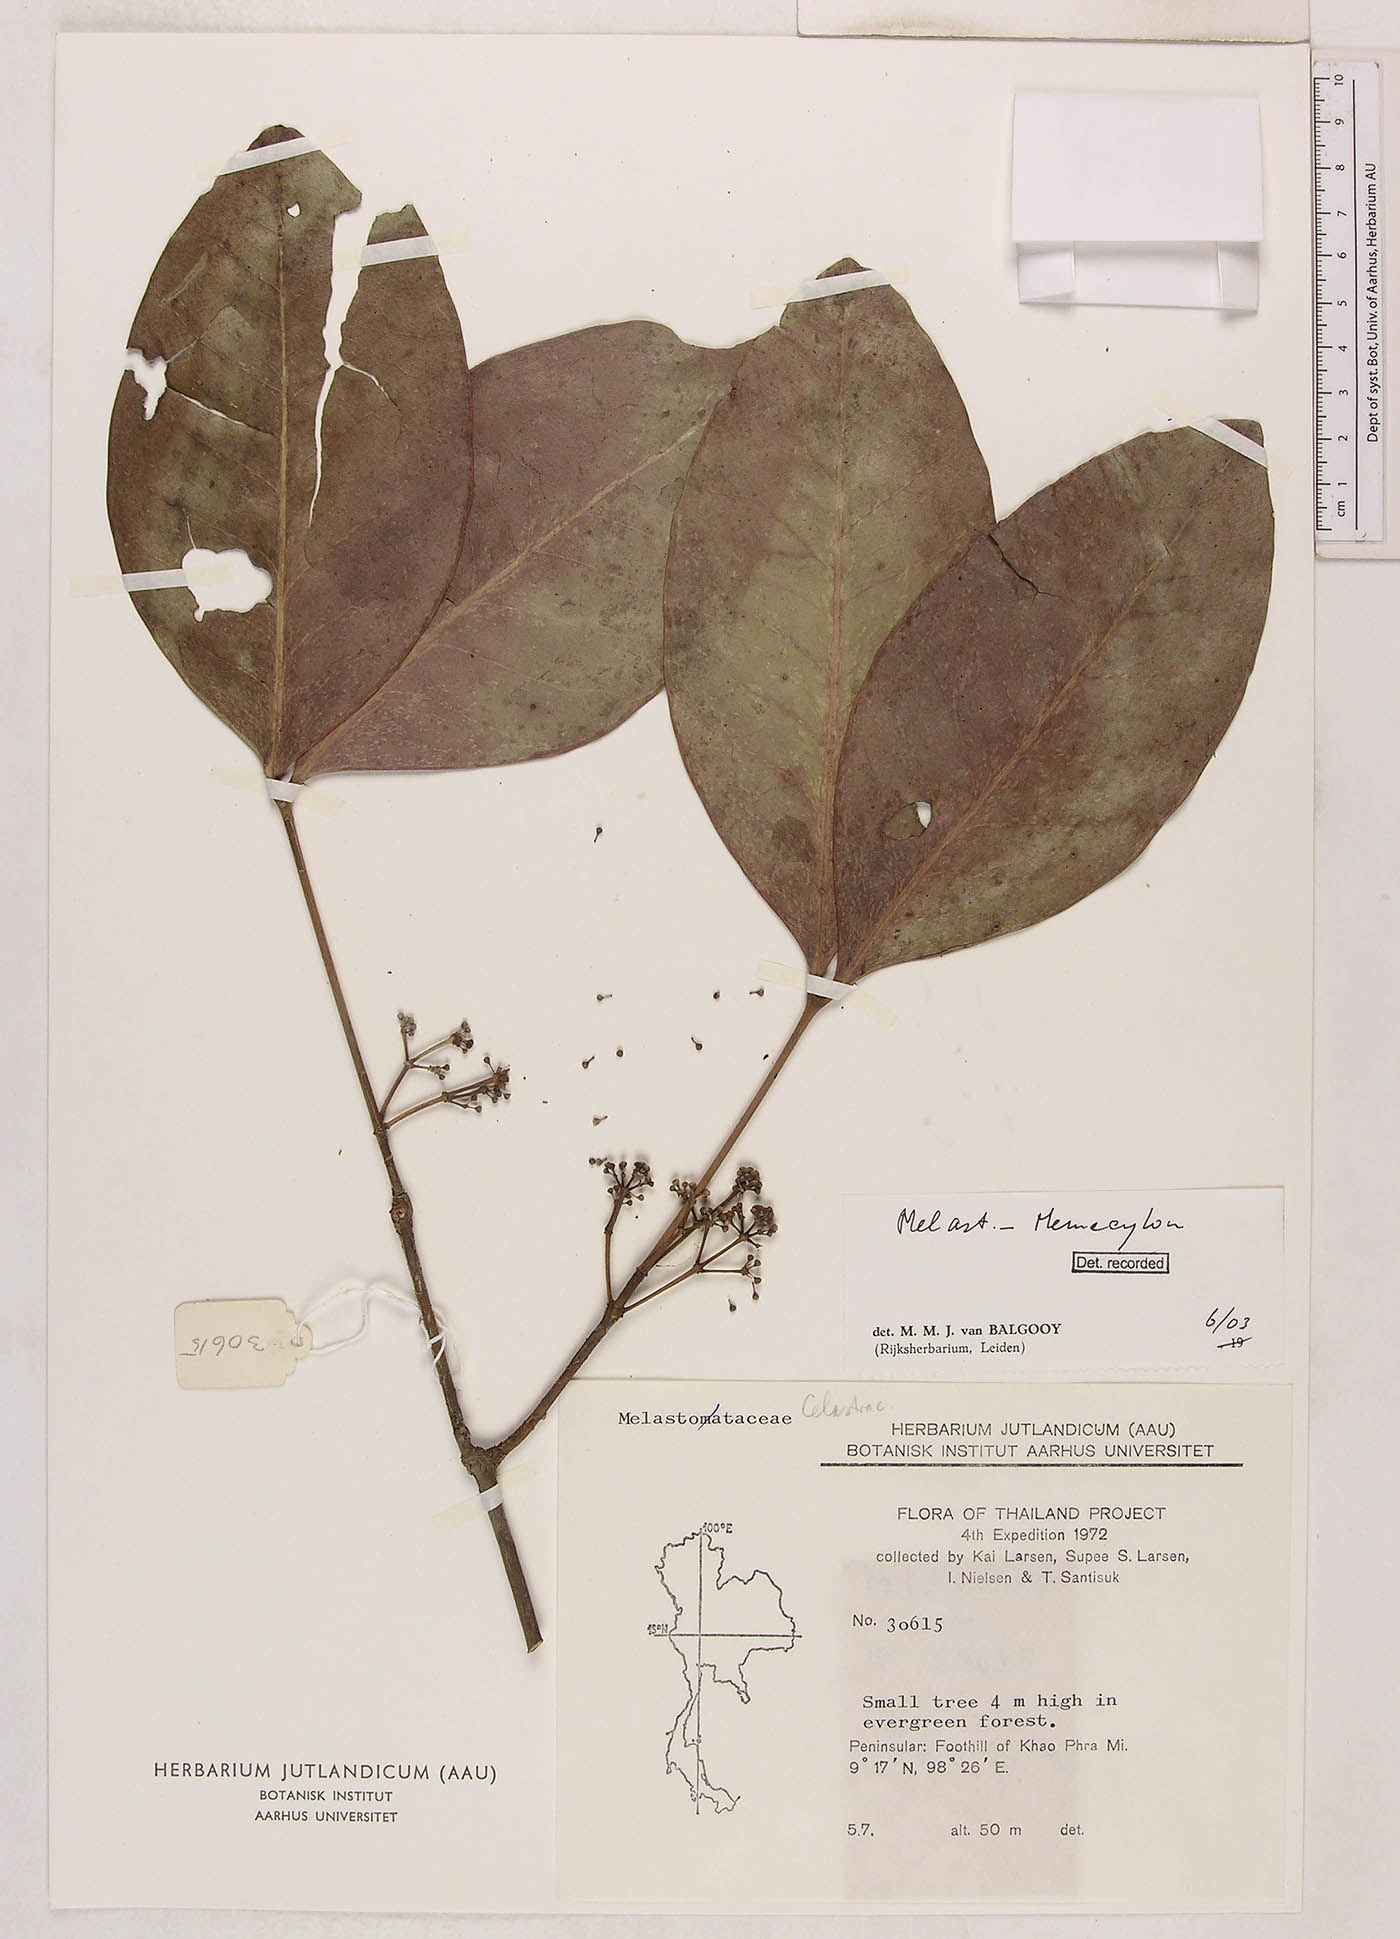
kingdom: Plantae
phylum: Tracheophyta
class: Magnoliopsida
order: Myrtales
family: Melastomataceae
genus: Memecylon
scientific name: Memecylon elegans
